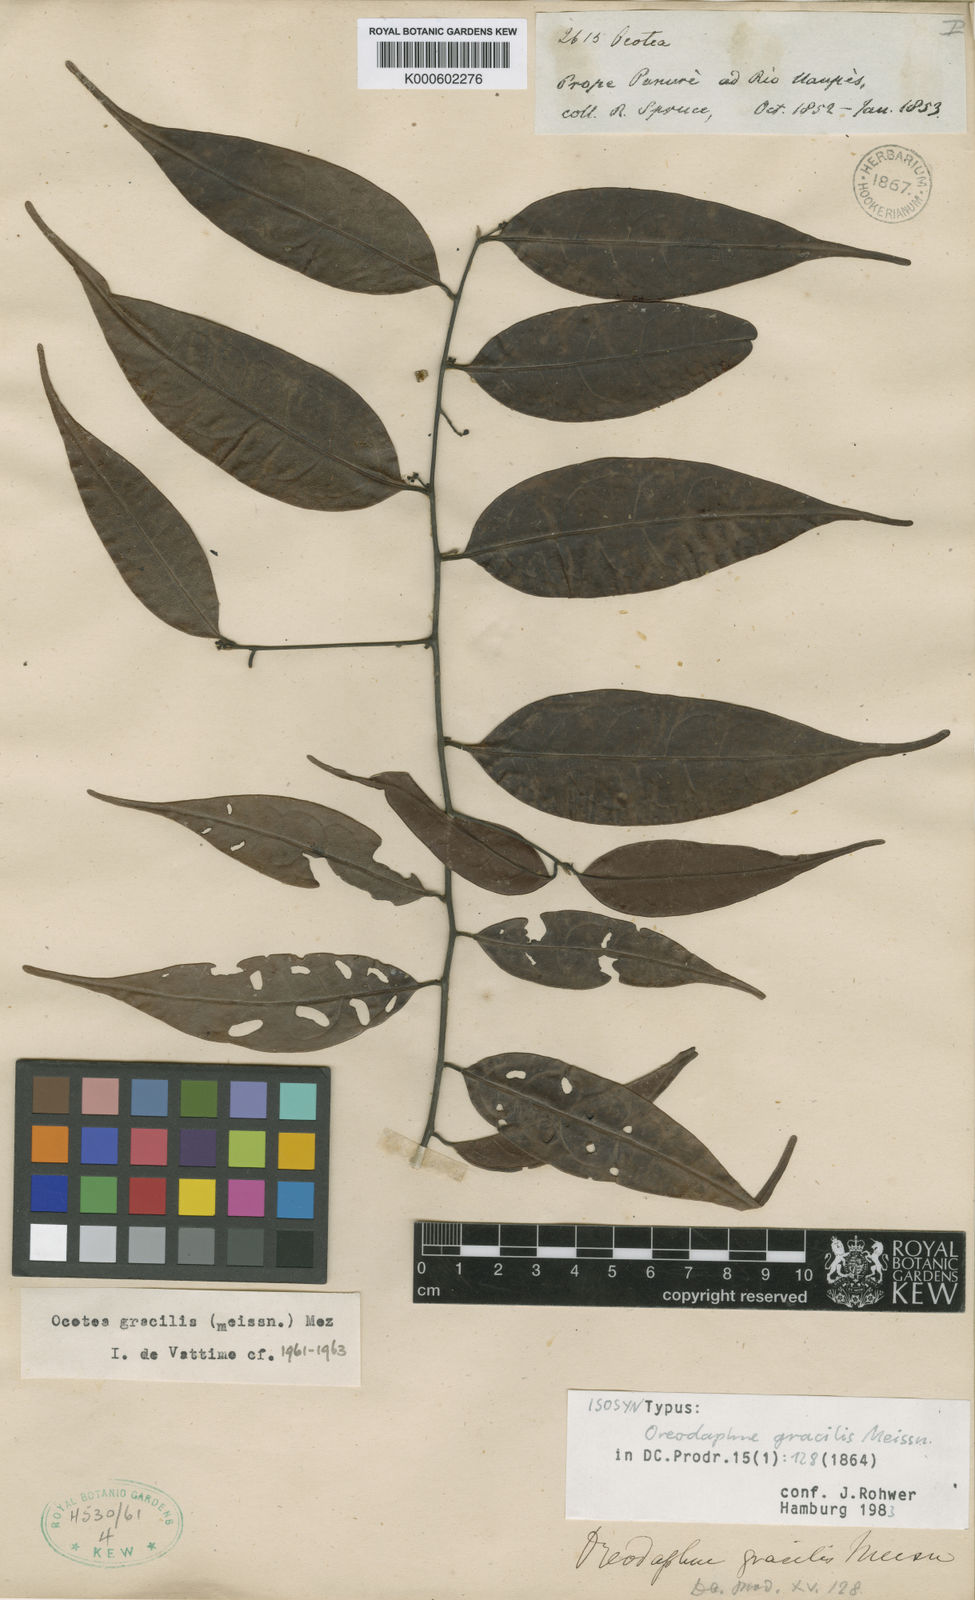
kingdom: Plantae
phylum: Tracheophyta
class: Magnoliopsida
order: Laurales
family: Lauraceae
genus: Ocotea
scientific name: Ocotea gracilis
